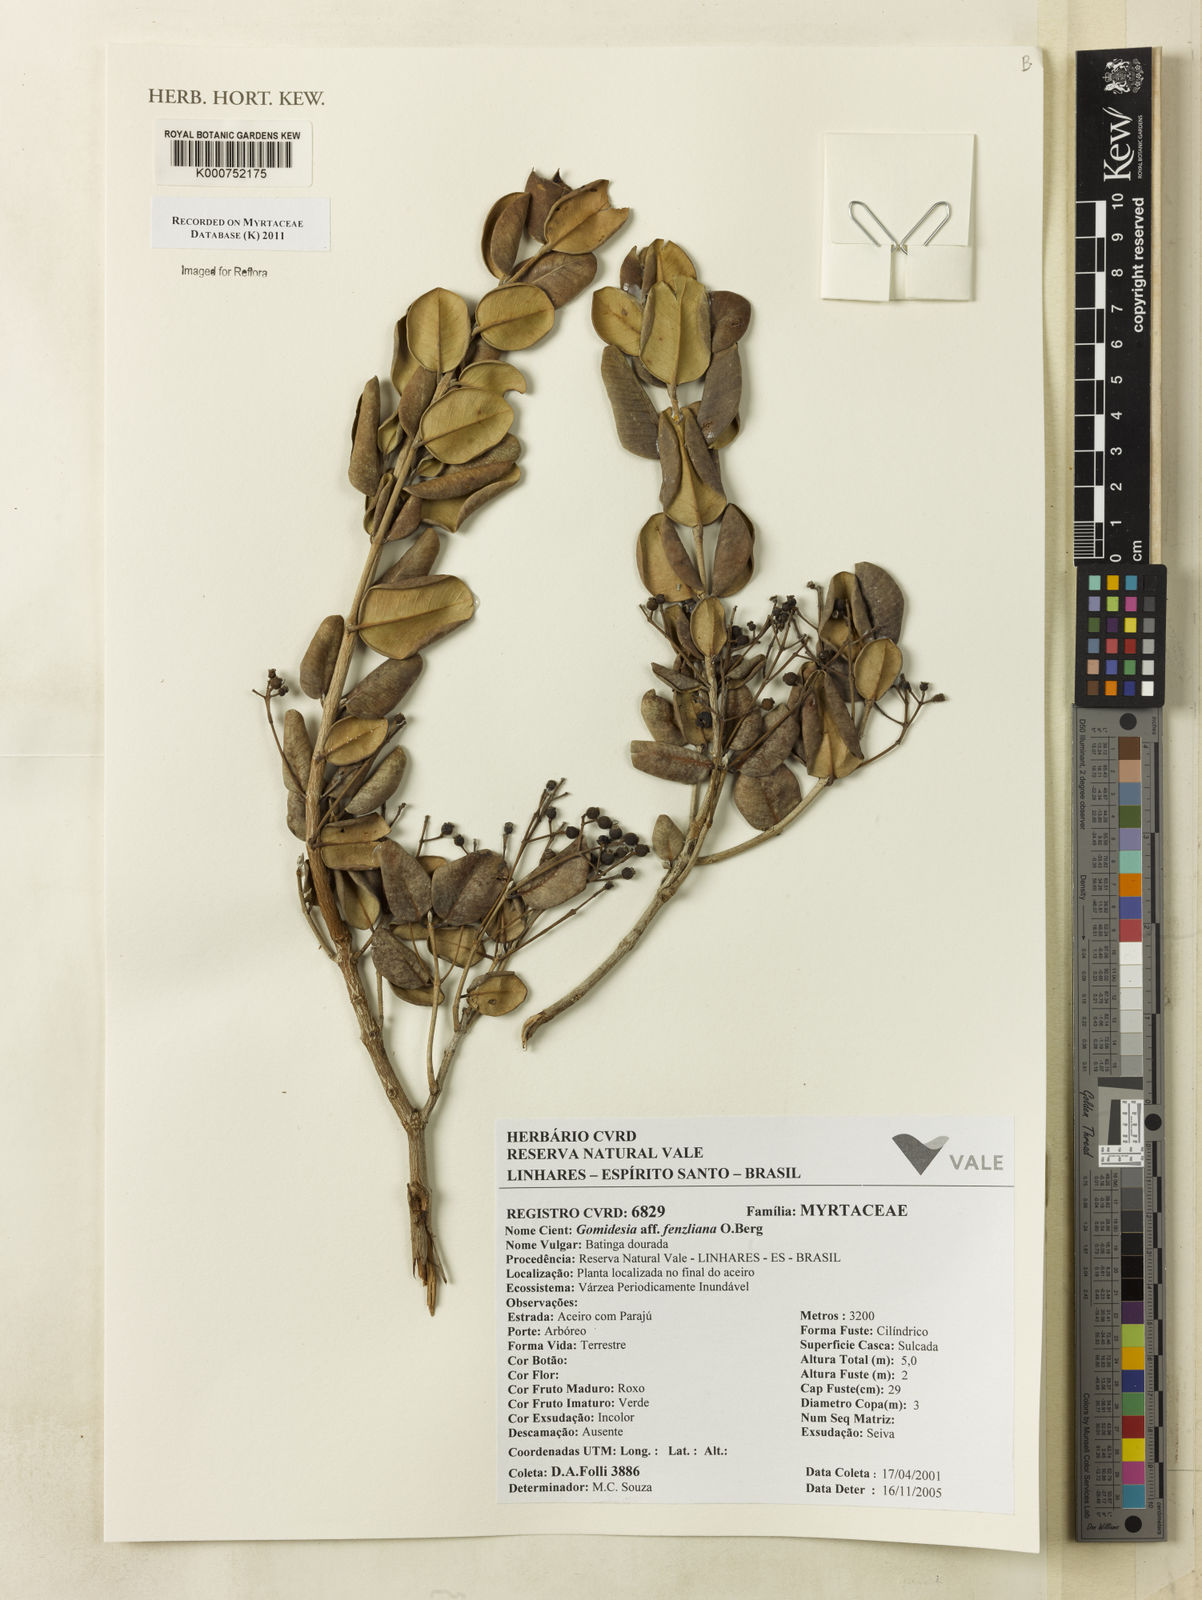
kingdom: Plantae
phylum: Tracheophyta
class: Magnoliopsida
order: Myrtales
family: Myrtaceae
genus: Myrcia
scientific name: Myrcia ilheosensis
